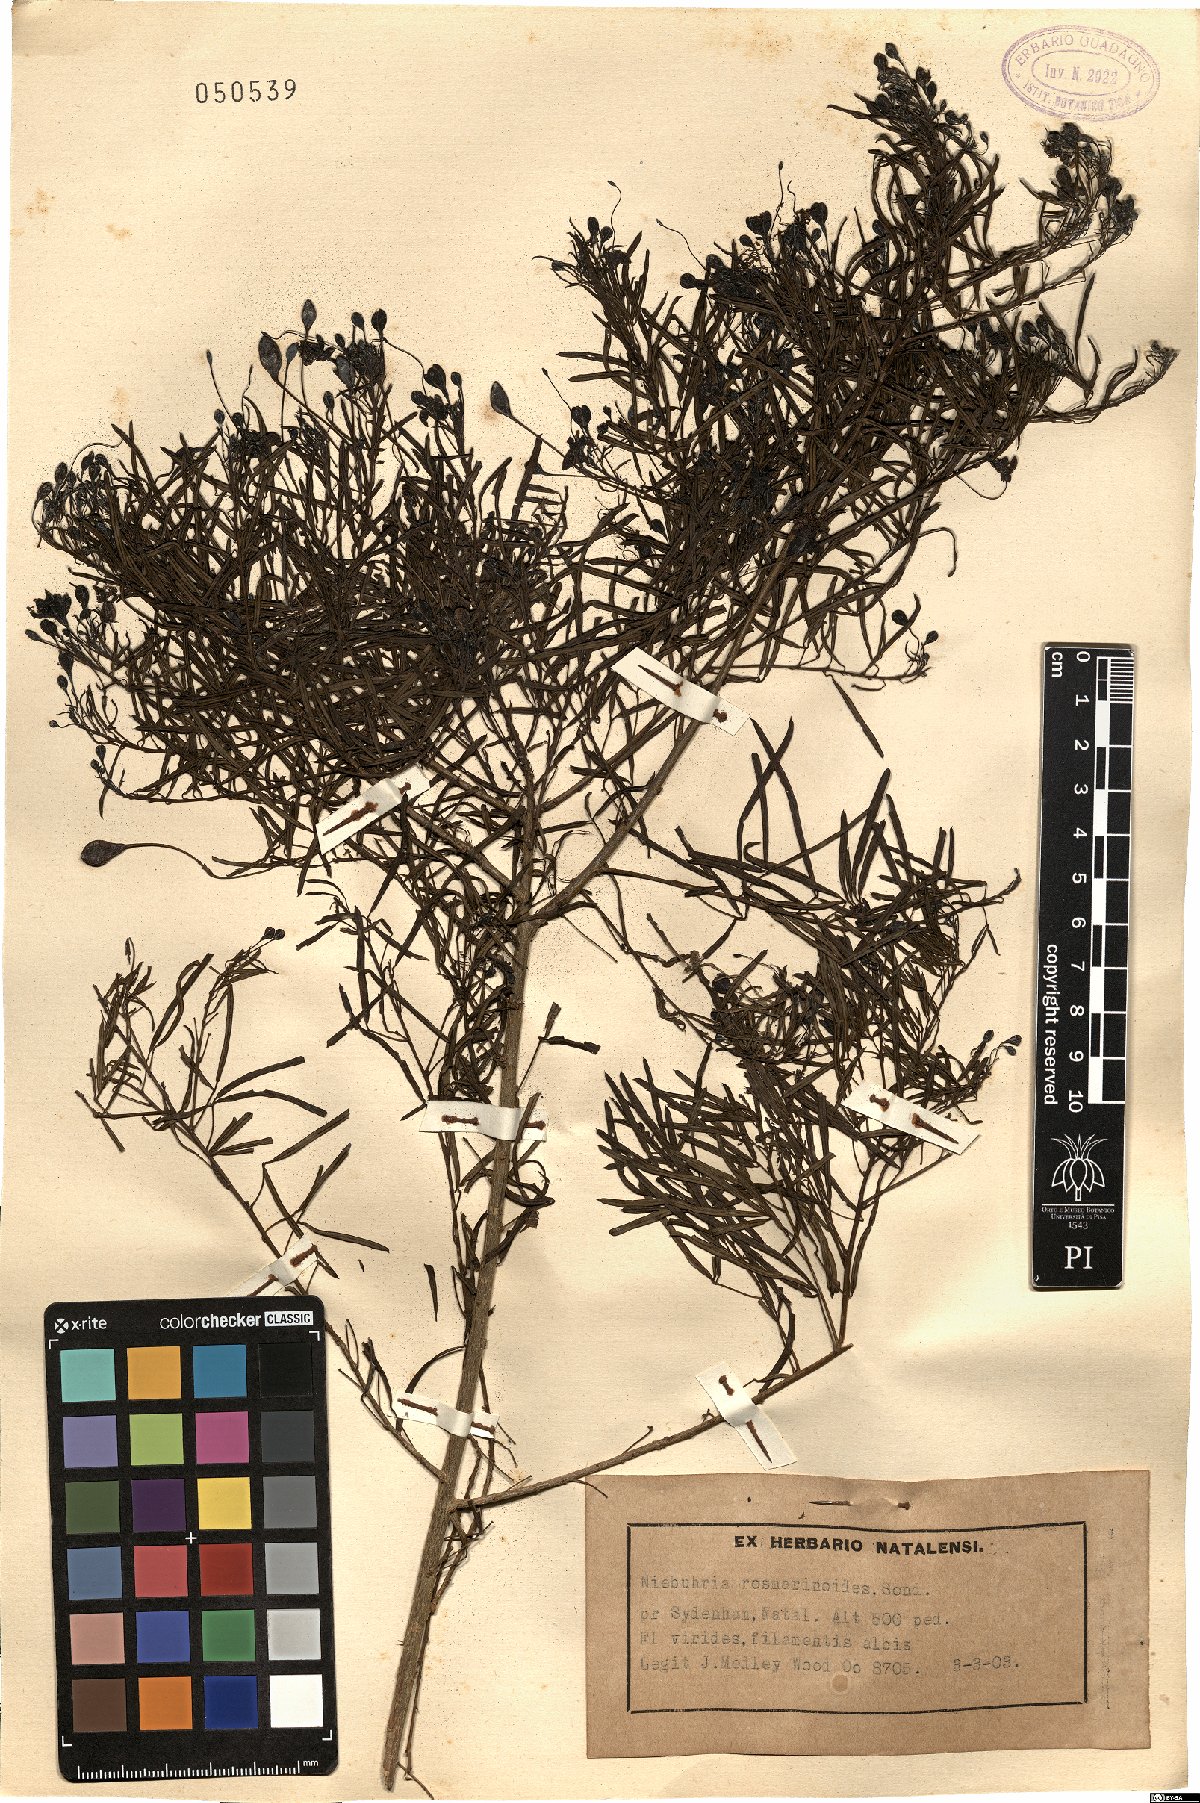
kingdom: Plantae
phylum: Tracheophyta
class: Magnoliopsida
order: Brassicales
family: Capparaceae
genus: Maerua
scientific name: Maerua rosmarinoides
